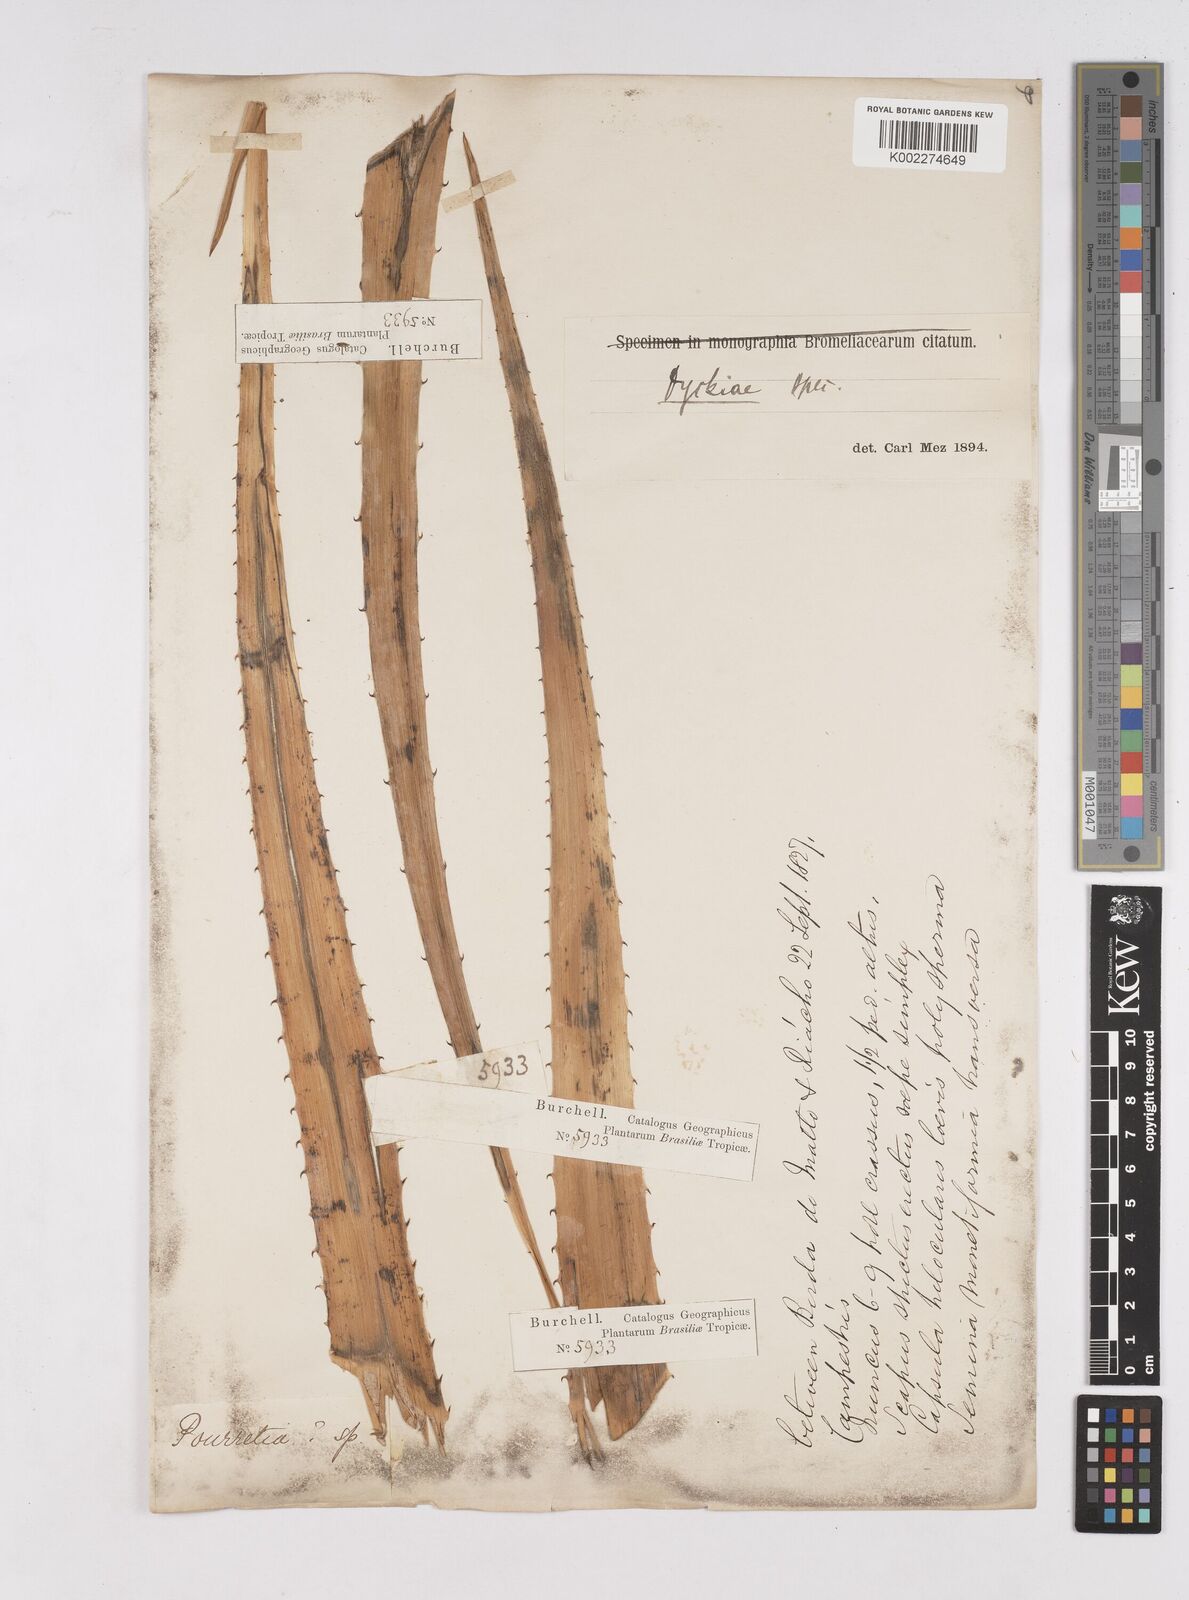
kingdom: Plantae
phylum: Tracheophyta
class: Liliopsida
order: Poales
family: Bromeliaceae
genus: Dyckia
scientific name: Dyckia
